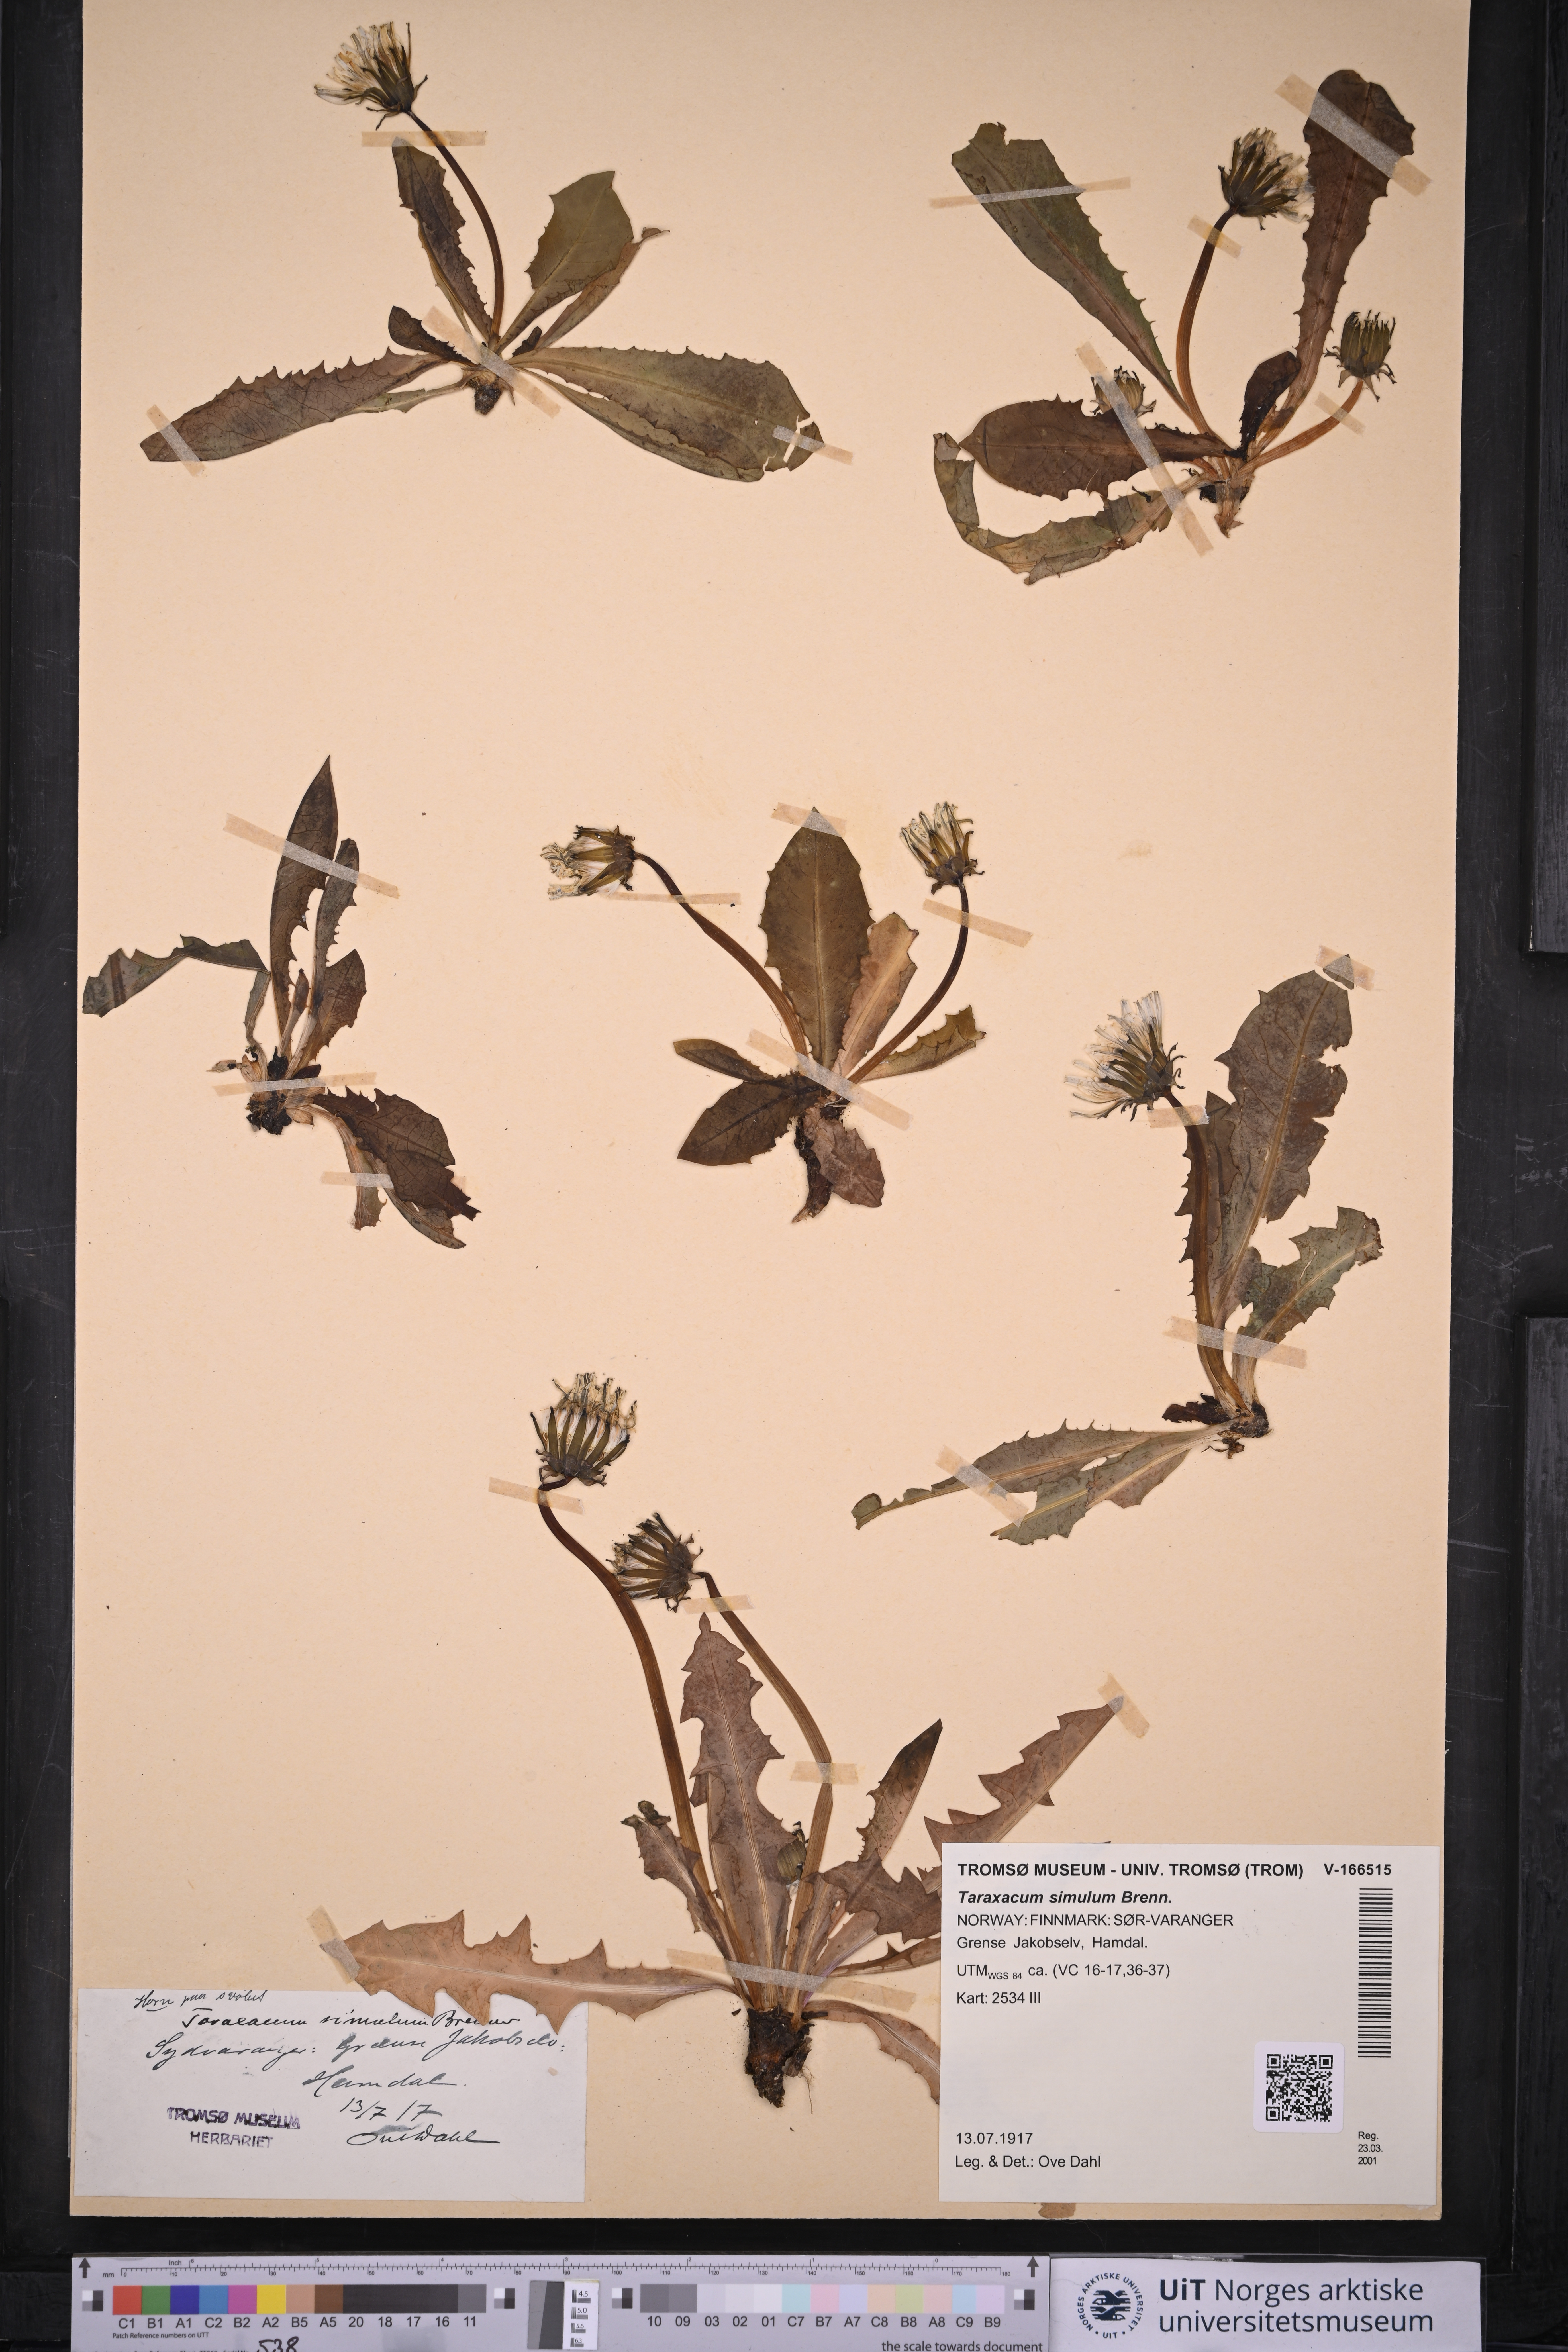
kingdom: Plantae
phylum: Tracheophyta
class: Magnoliopsida
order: Asterales
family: Asteraceae
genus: Taraxacum
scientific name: Taraxacum simulum
